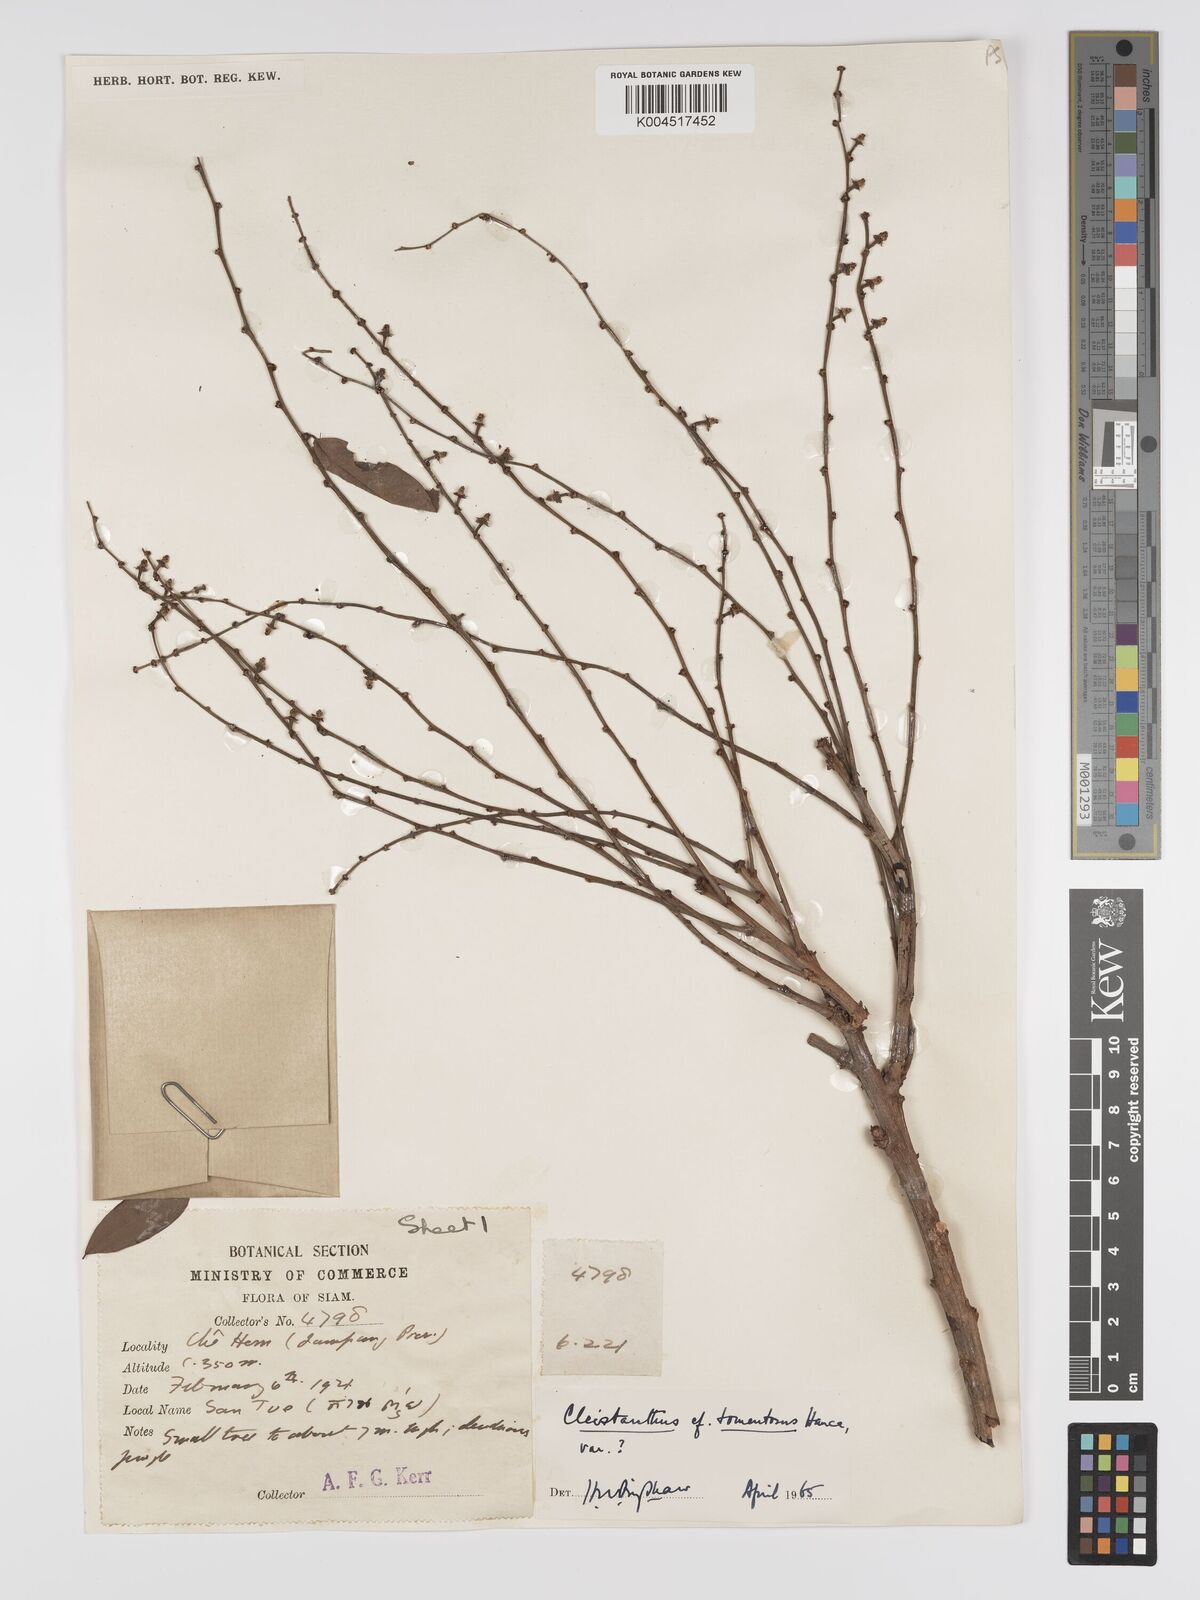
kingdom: Plantae
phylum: Tracheophyta
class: Magnoliopsida
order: Malpighiales
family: Phyllanthaceae
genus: Phyllanthus
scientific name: Phyllanthus
